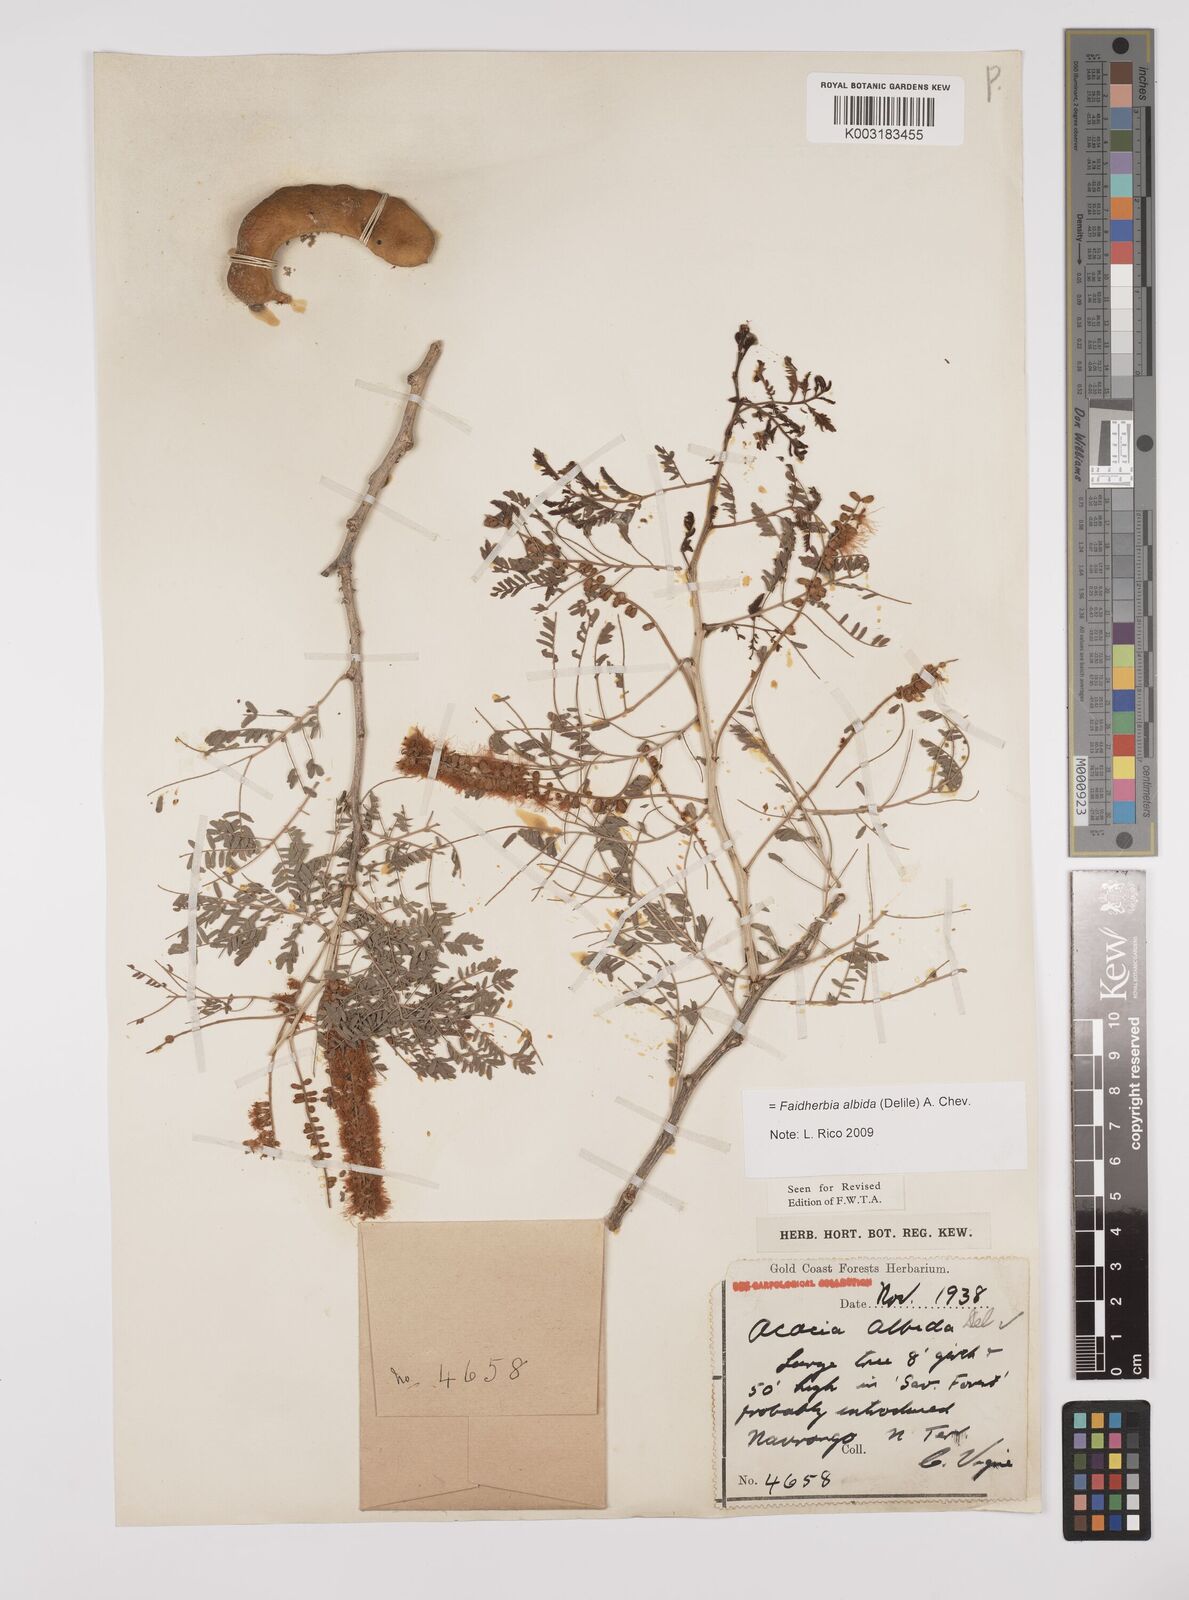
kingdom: Plantae
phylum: Tracheophyta
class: Magnoliopsida
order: Fabales
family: Fabaceae
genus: Faidherbia
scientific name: Faidherbia albida
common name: Anatree
